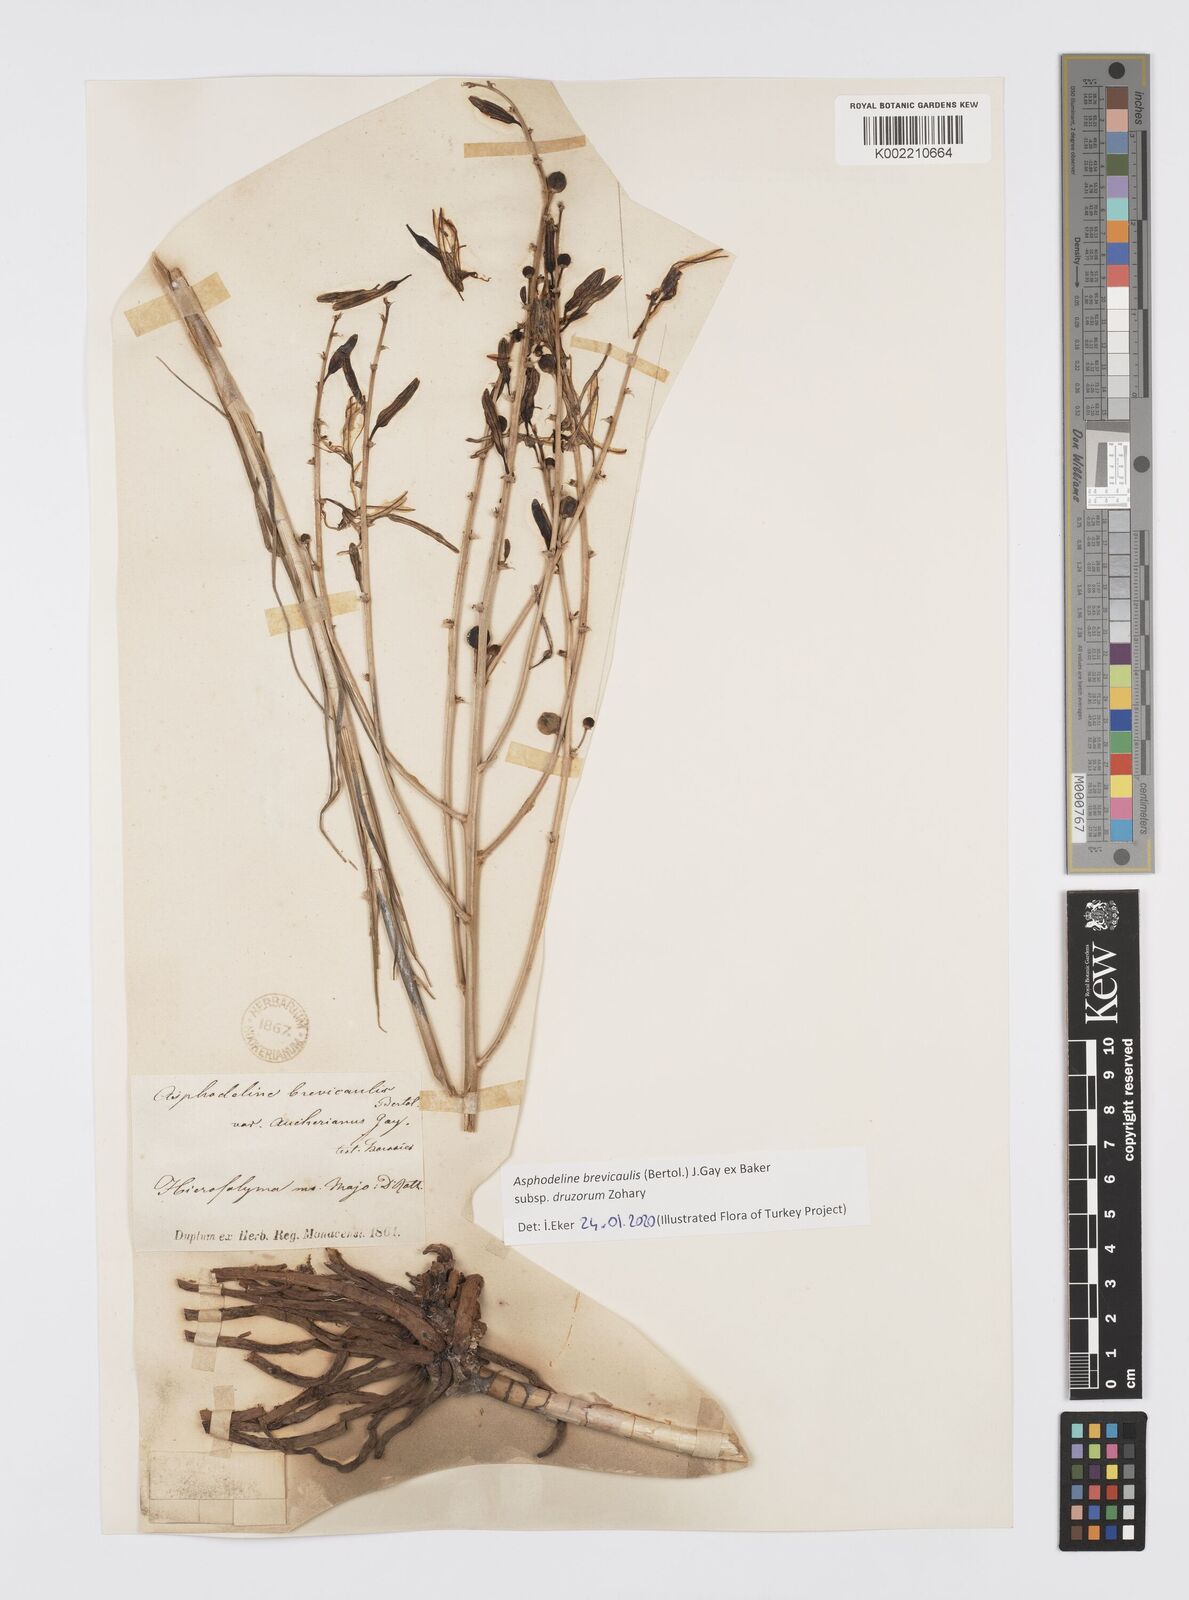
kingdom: Plantae
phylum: Tracheophyta
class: Liliopsida
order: Asparagales
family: Asphodelaceae
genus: Asphodeline
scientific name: Asphodeline brevicaulis
